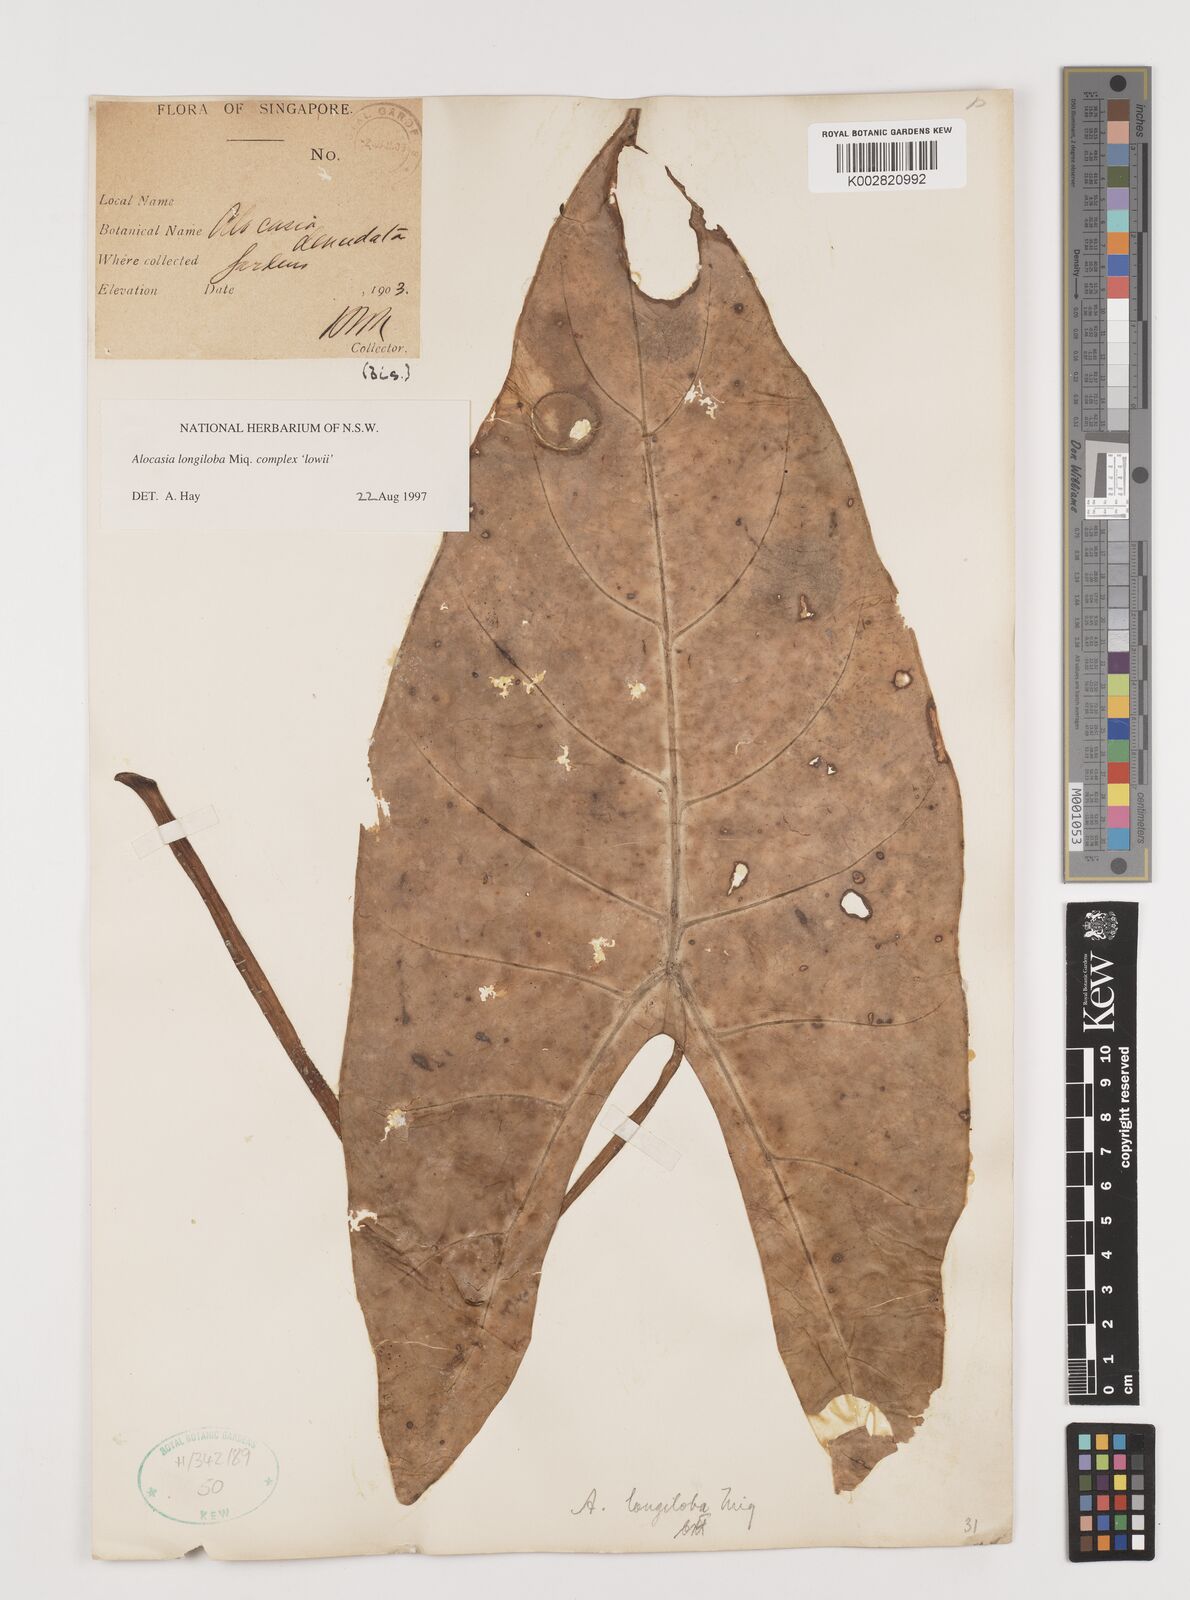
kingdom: Plantae
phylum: Tracheophyta
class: Liliopsida
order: Alismatales
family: Araceae
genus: Alocasia
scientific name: Alocasia longiloba
